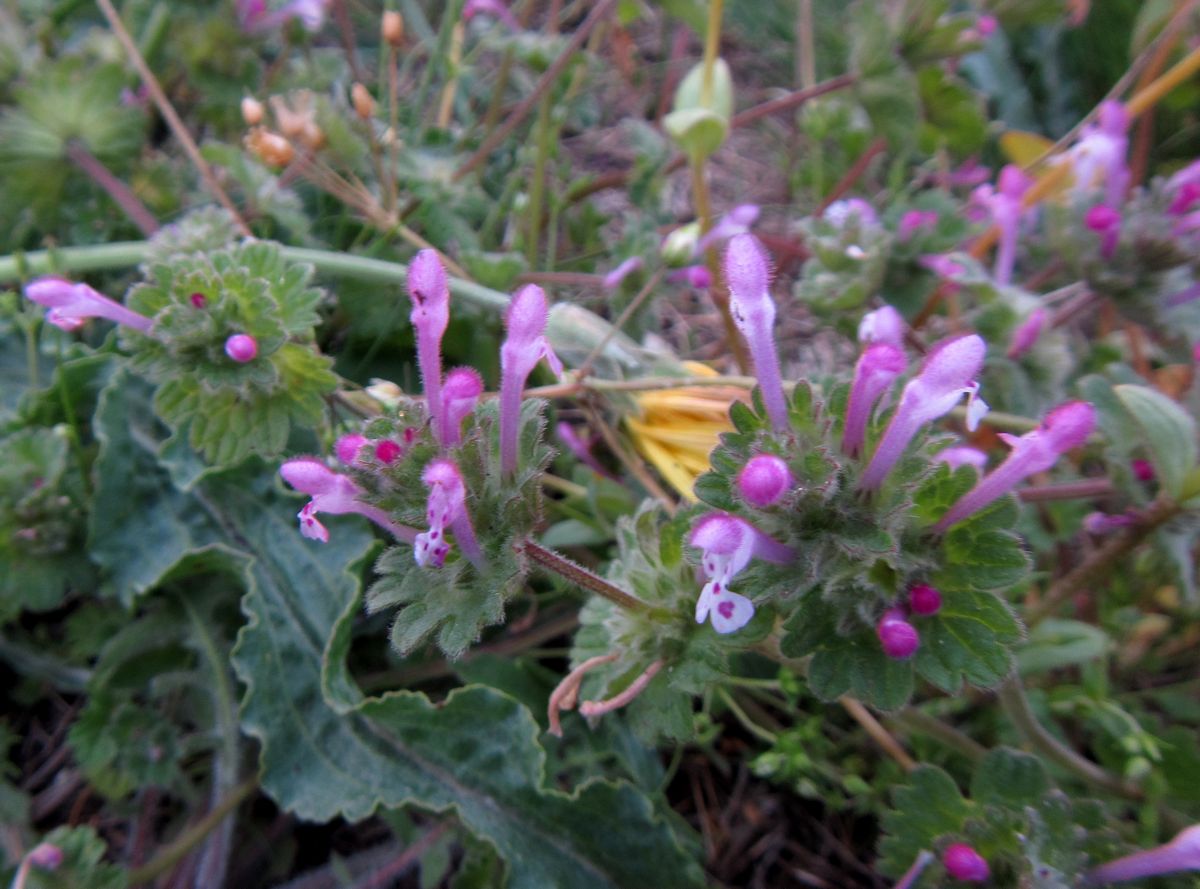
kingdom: Plantae
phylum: Tracheophyta
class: Magnoliopsida
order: Lamiales
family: Lamiaceae
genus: Lamium
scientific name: Lamium amplexicaule
